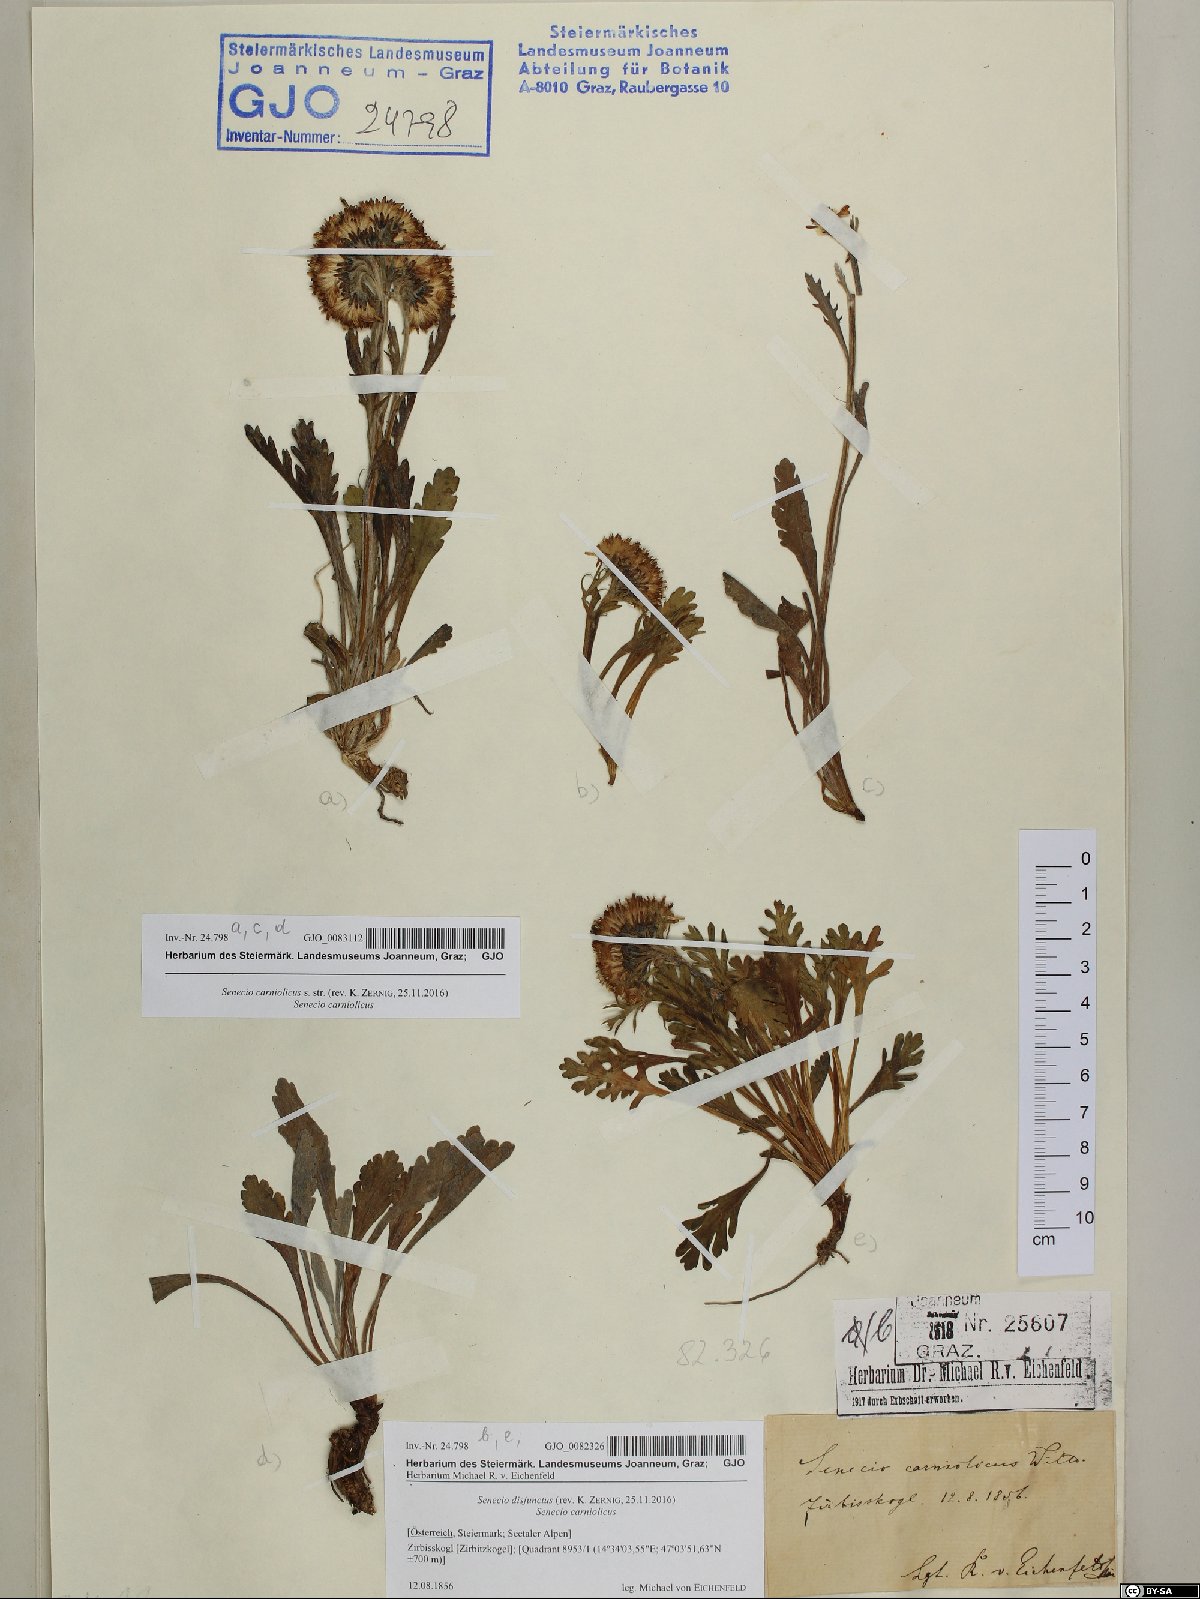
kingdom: Plantae
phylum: Tracheophyta
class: Magnoliopsida
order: Asterales
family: Asteraceae
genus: Jacobaea
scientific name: Jacobaea carniolica
